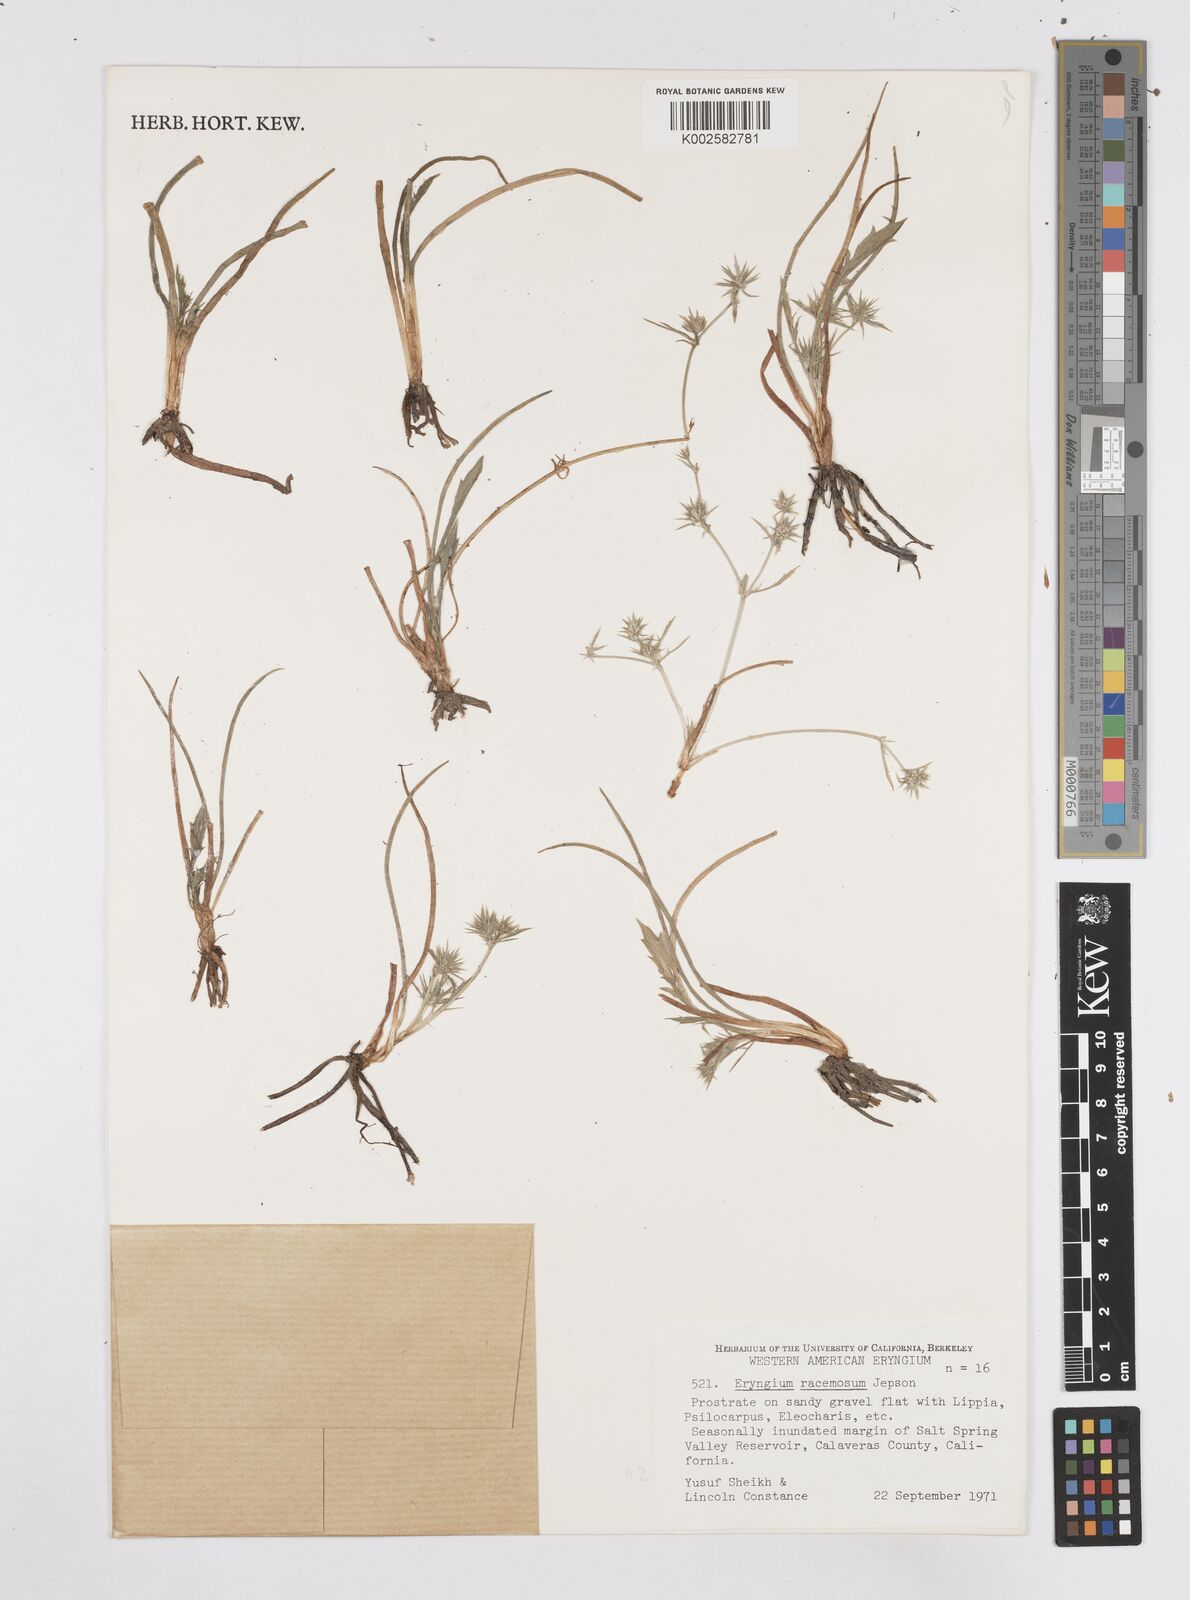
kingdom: Plantae
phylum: Tracheophyta
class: Magnoliopsida
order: Apiales
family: Apiaceae
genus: Eryngium
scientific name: Eryngium racemosum
